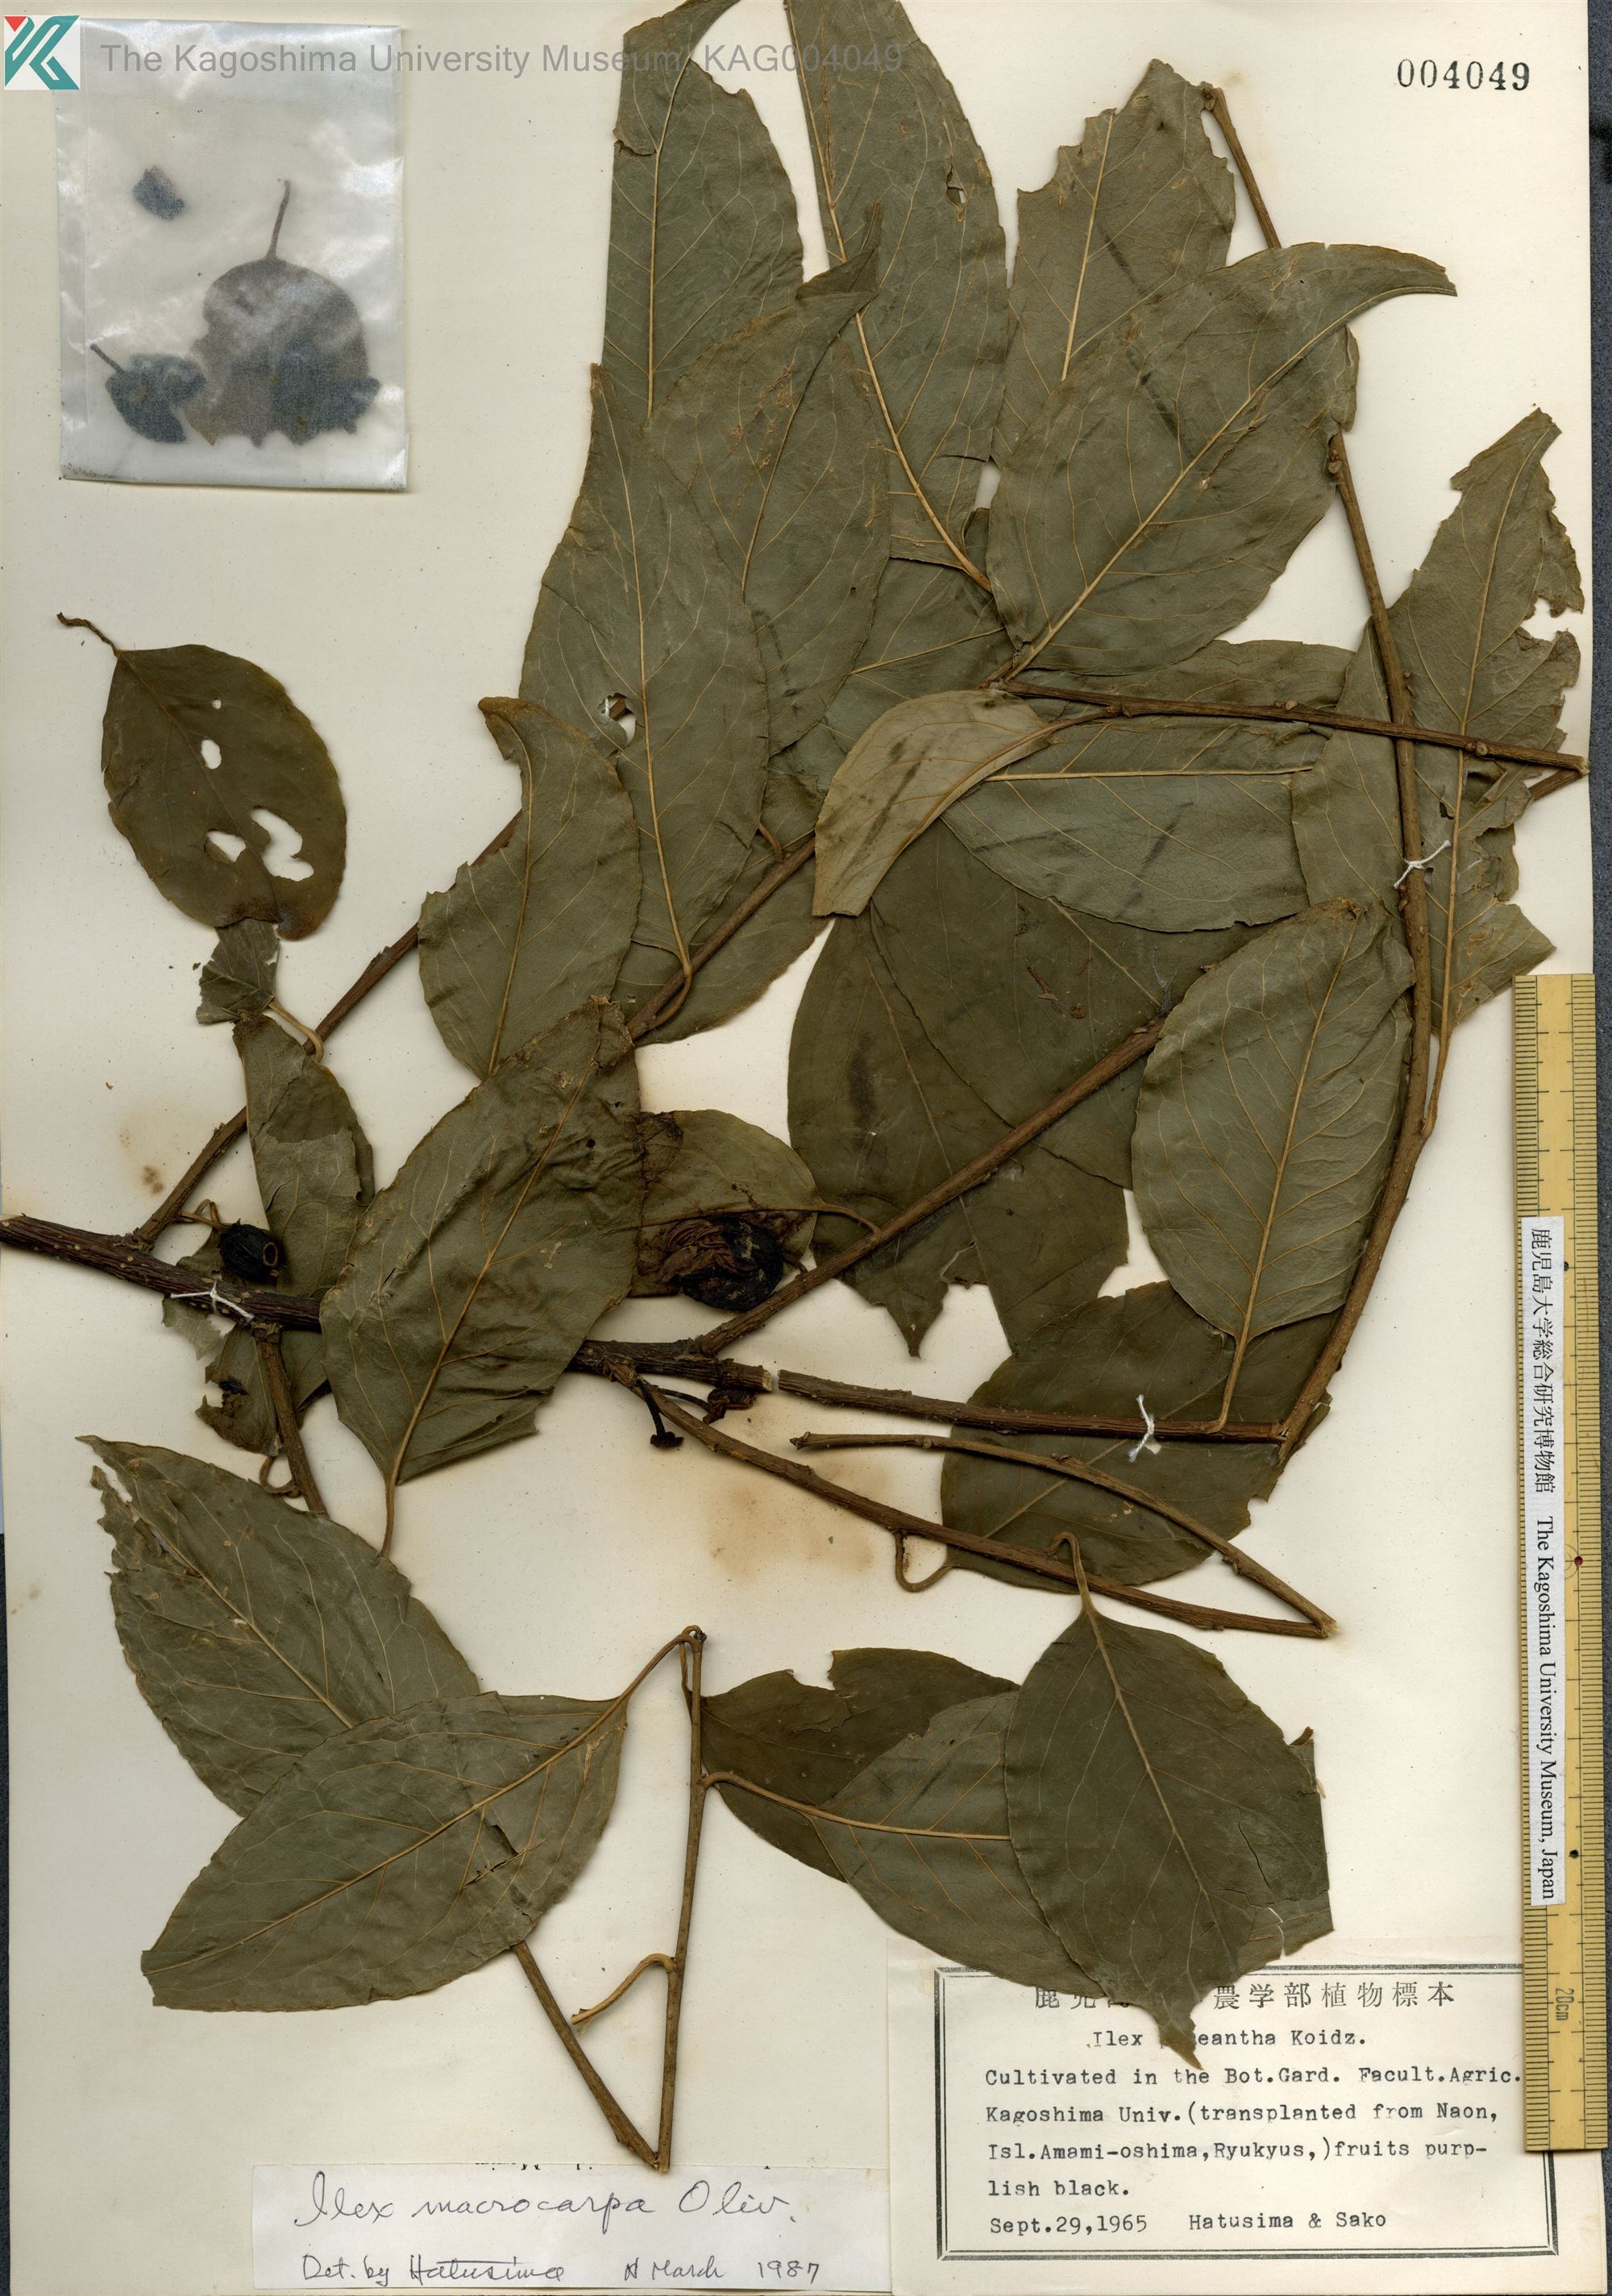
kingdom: Plantae
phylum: Tracheophyta
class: Magnoliopsida
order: Aquifoliales
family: Aquifoliaceae
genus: Ilex
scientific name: Ilex macrocarpa
